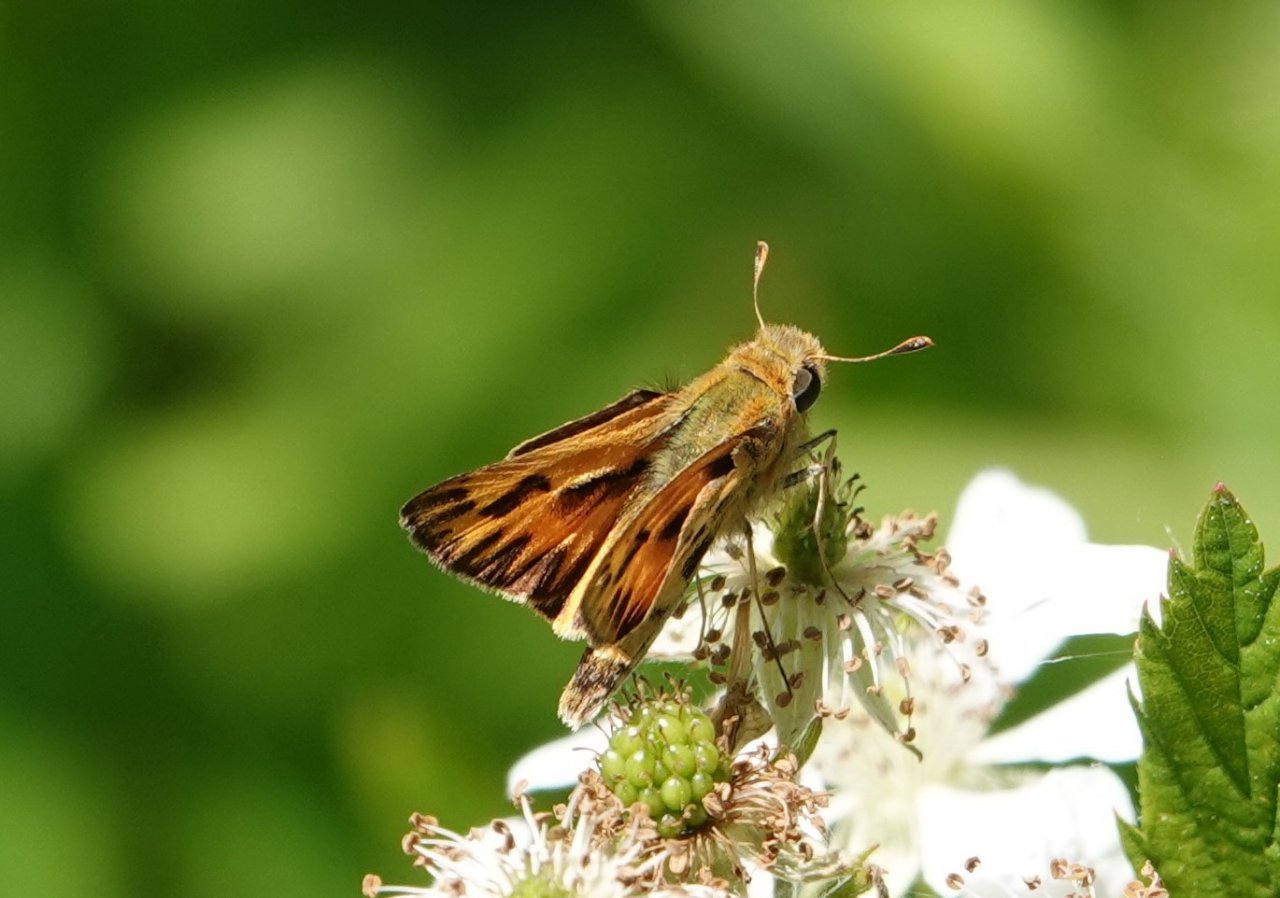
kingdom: Animalia
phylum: Arthropoda
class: Insecta
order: Lepidoptera
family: Hesperiidae
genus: Hylephila
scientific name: Hylephila phyleus
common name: Fiery Skipper
